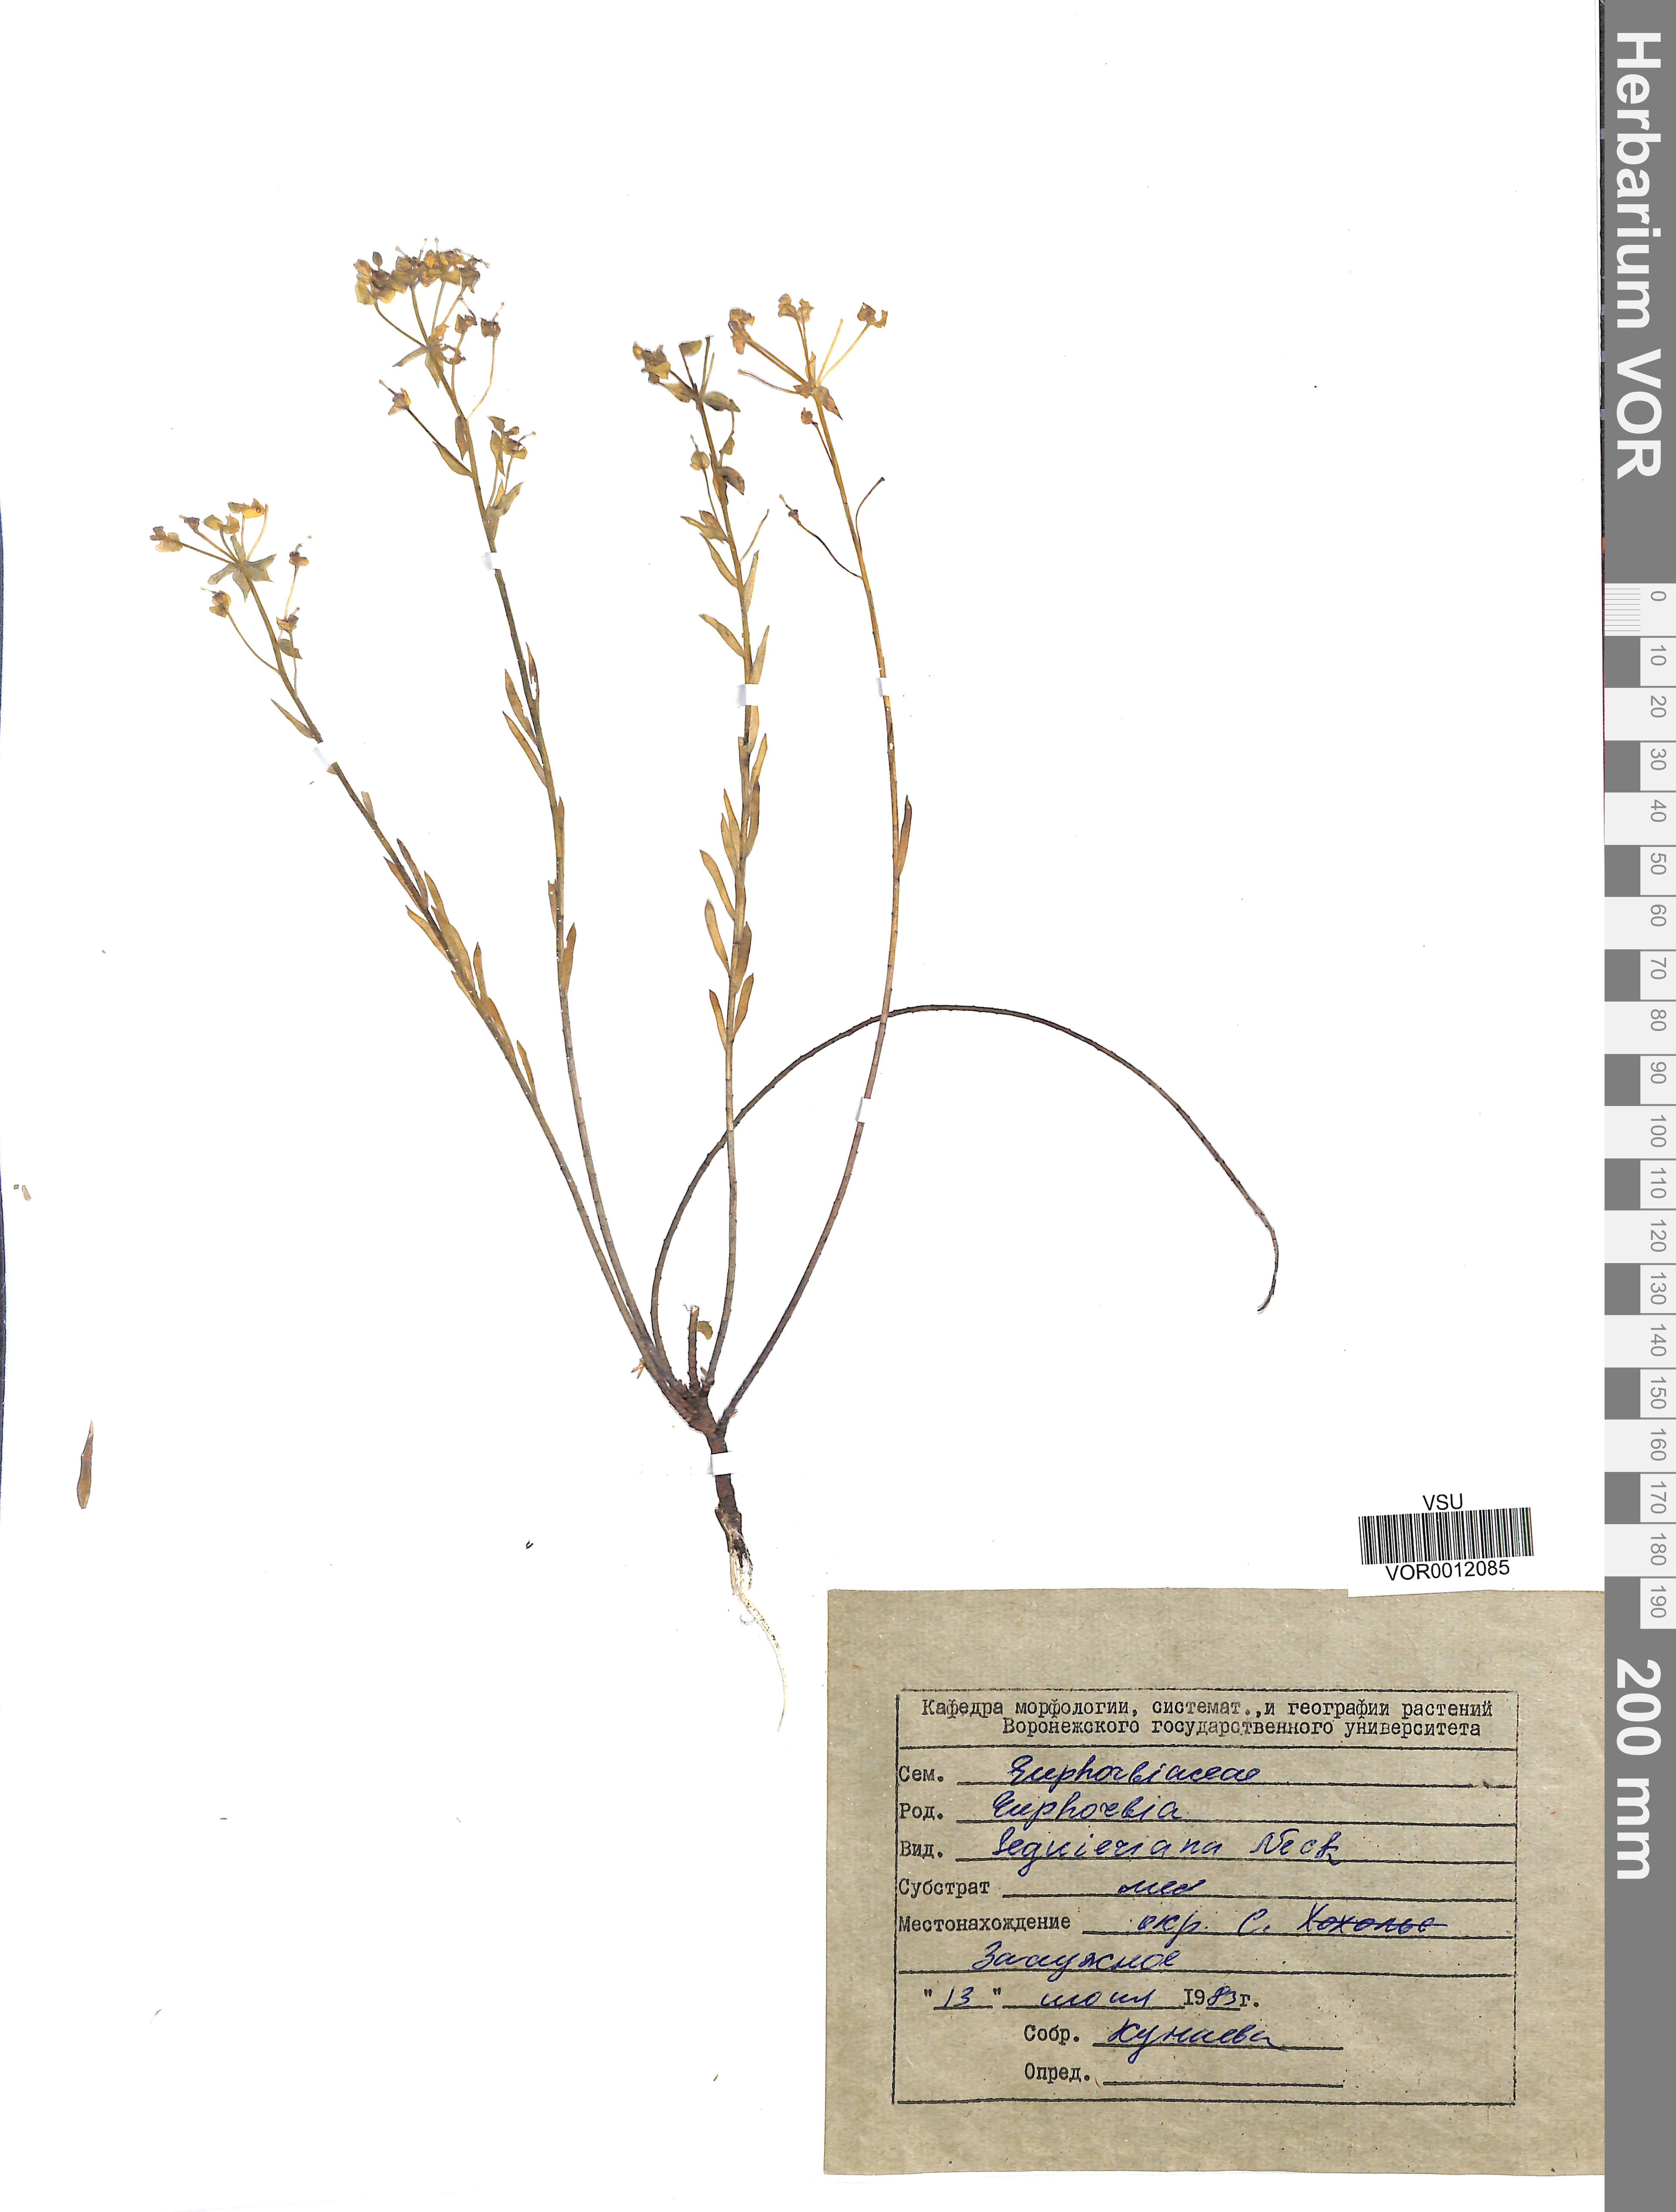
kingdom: Plantae
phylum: Tracheophyta
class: Magnoliopsida
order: Malpighiales
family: Euphorbiaceae
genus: Euphorbia
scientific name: Euphorbia seguieriana
